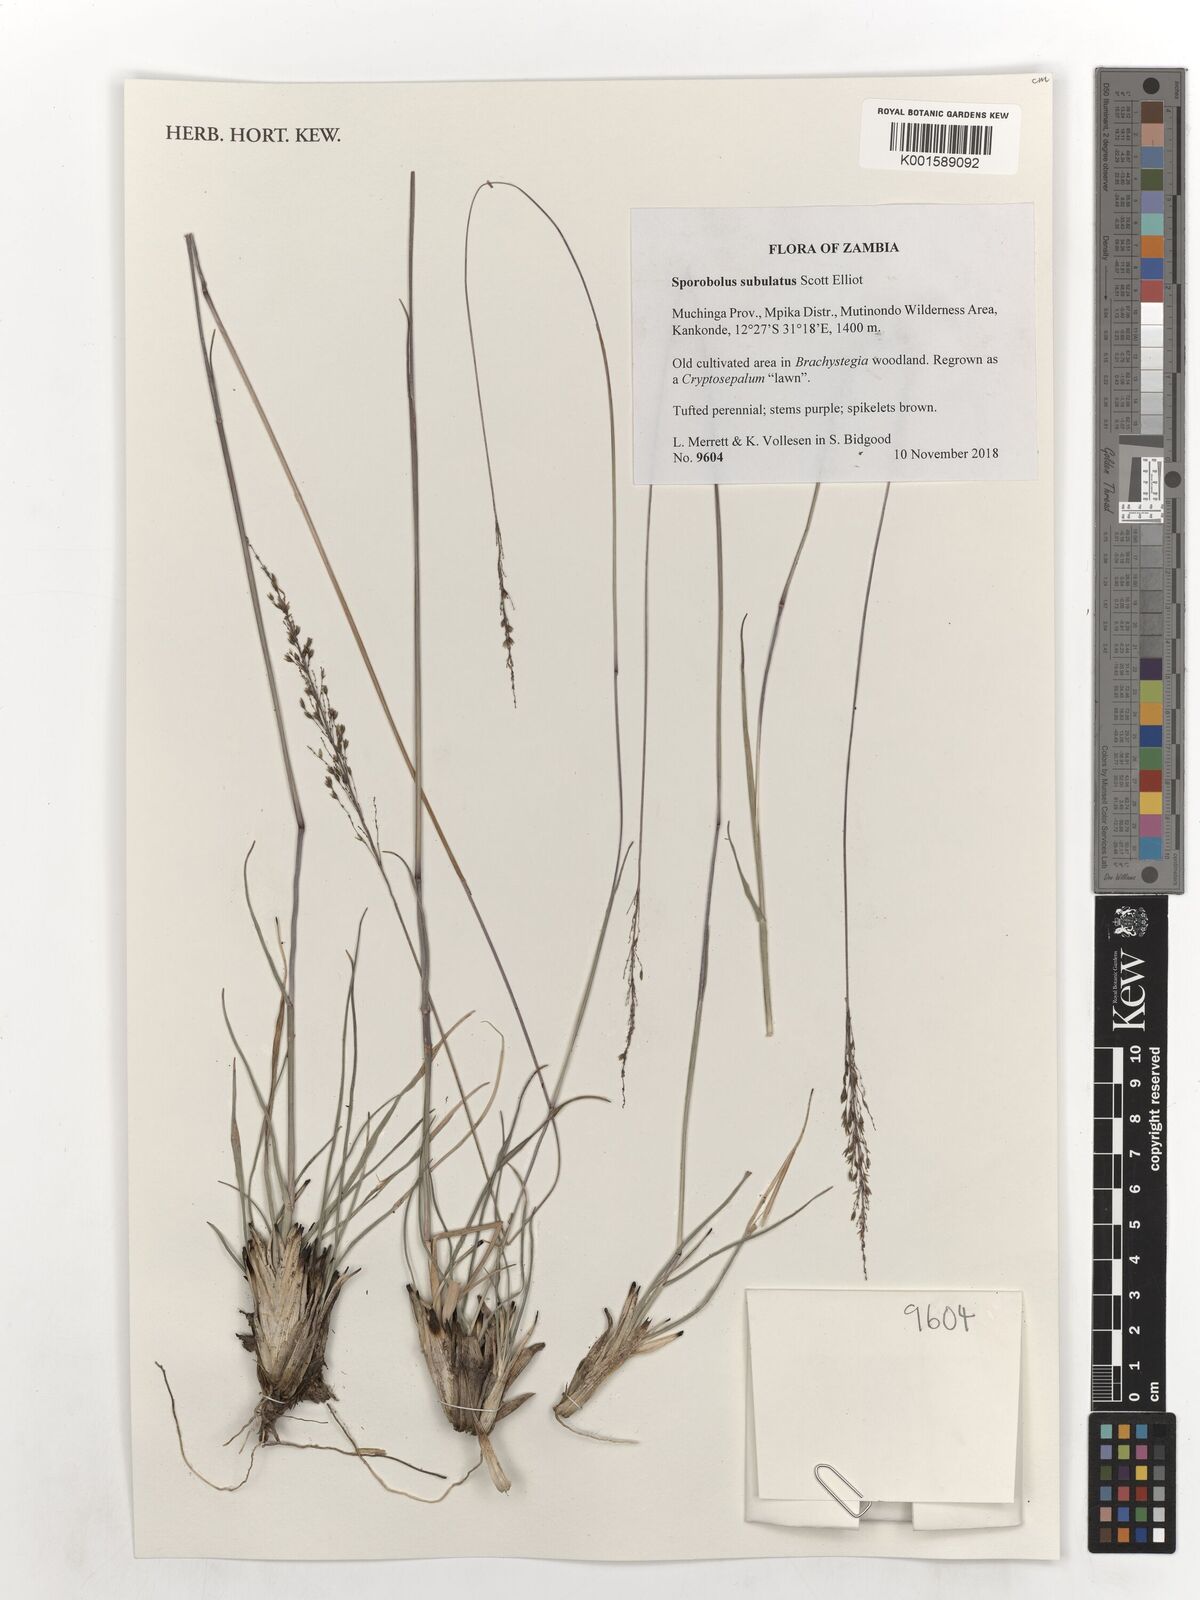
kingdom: Plantae
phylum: Tracheophyta
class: Liliopsida
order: Poales
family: Poaceae
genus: Sporobolus
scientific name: Sporobolus subulatus
